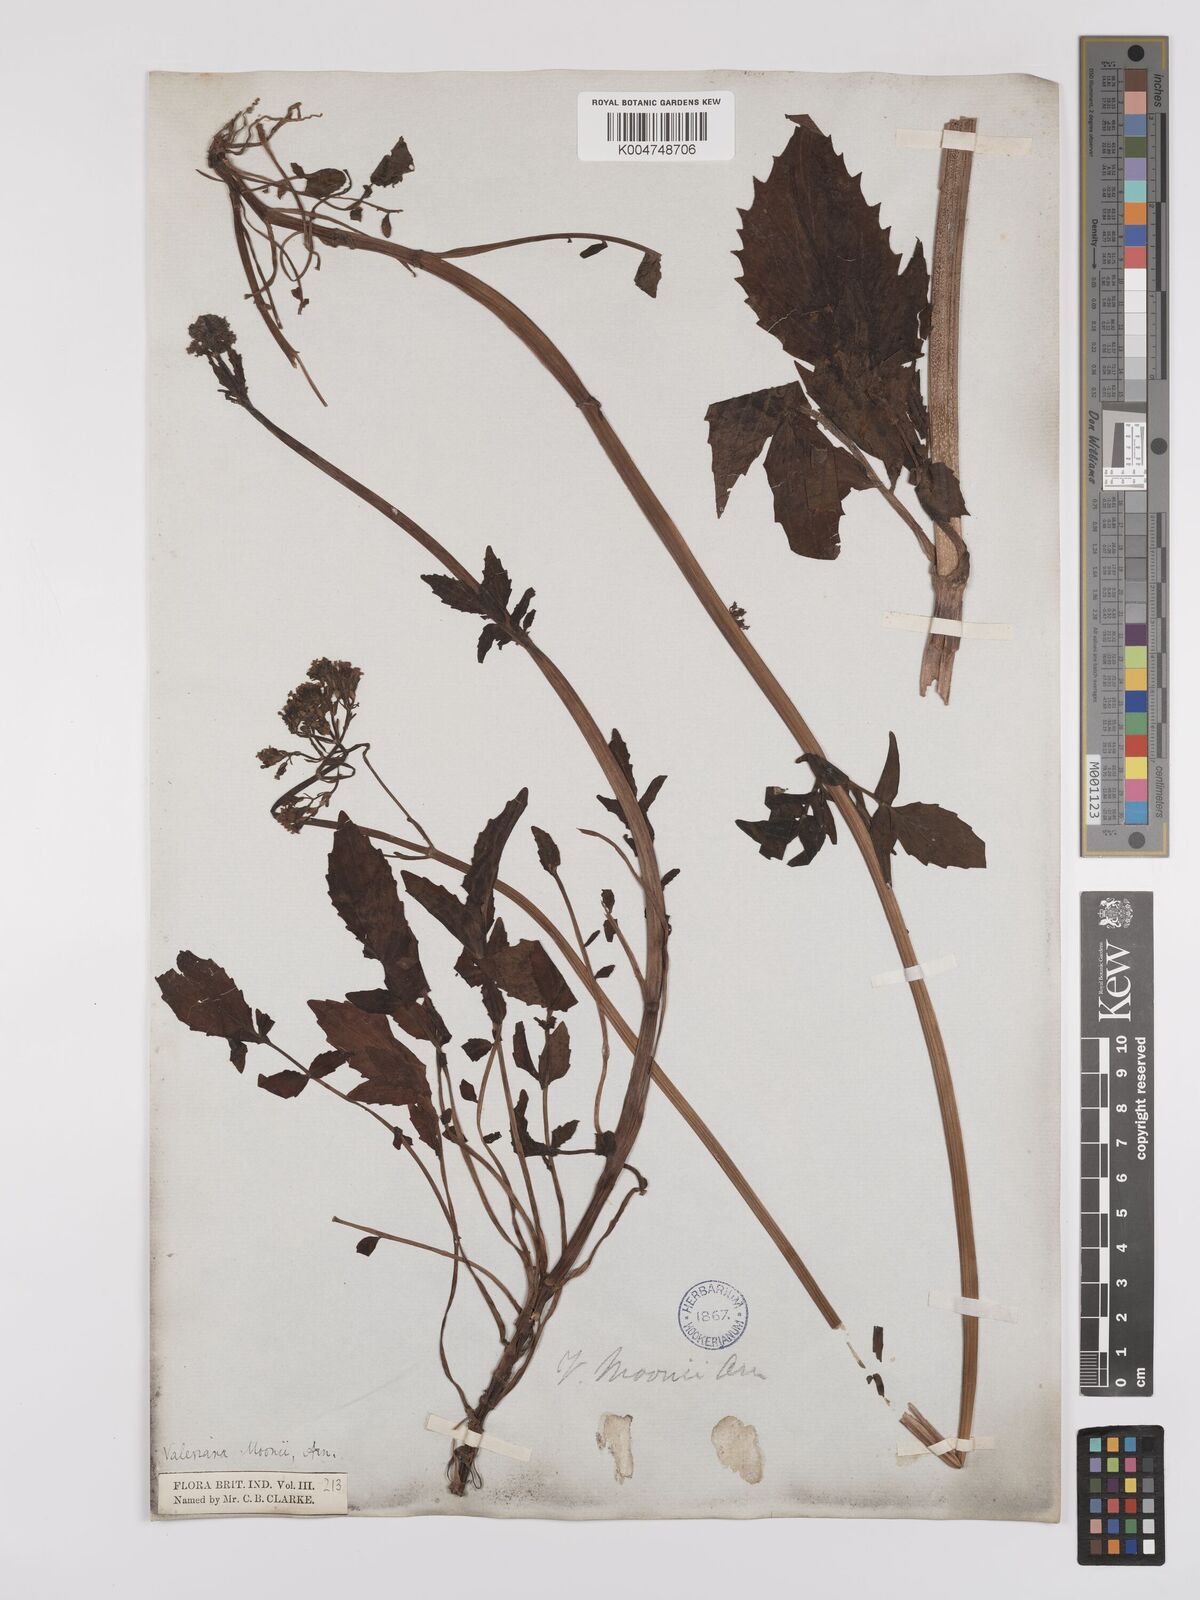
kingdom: Plantae
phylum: Tracheophyta
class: Magnoliopsida
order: Dipsacales
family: Caprifoliaceae
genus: Valeriana
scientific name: Valeriana moonii
